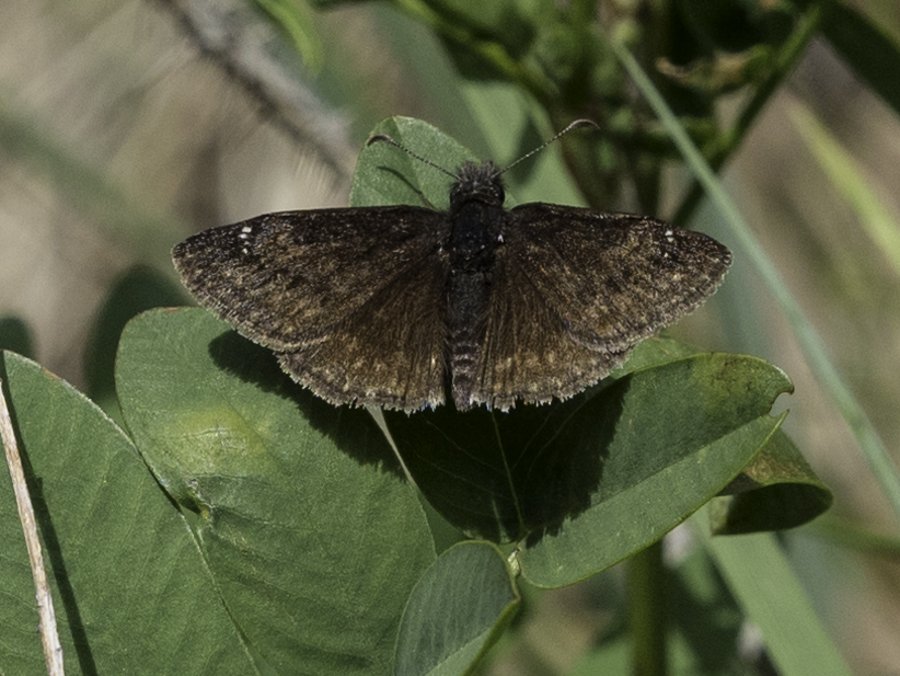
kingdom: Animalia
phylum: Arthropoda
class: Insecta
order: Lepidoptera
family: Hesperiidae
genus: Gesta
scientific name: Gesta
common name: Persius Duskywing
